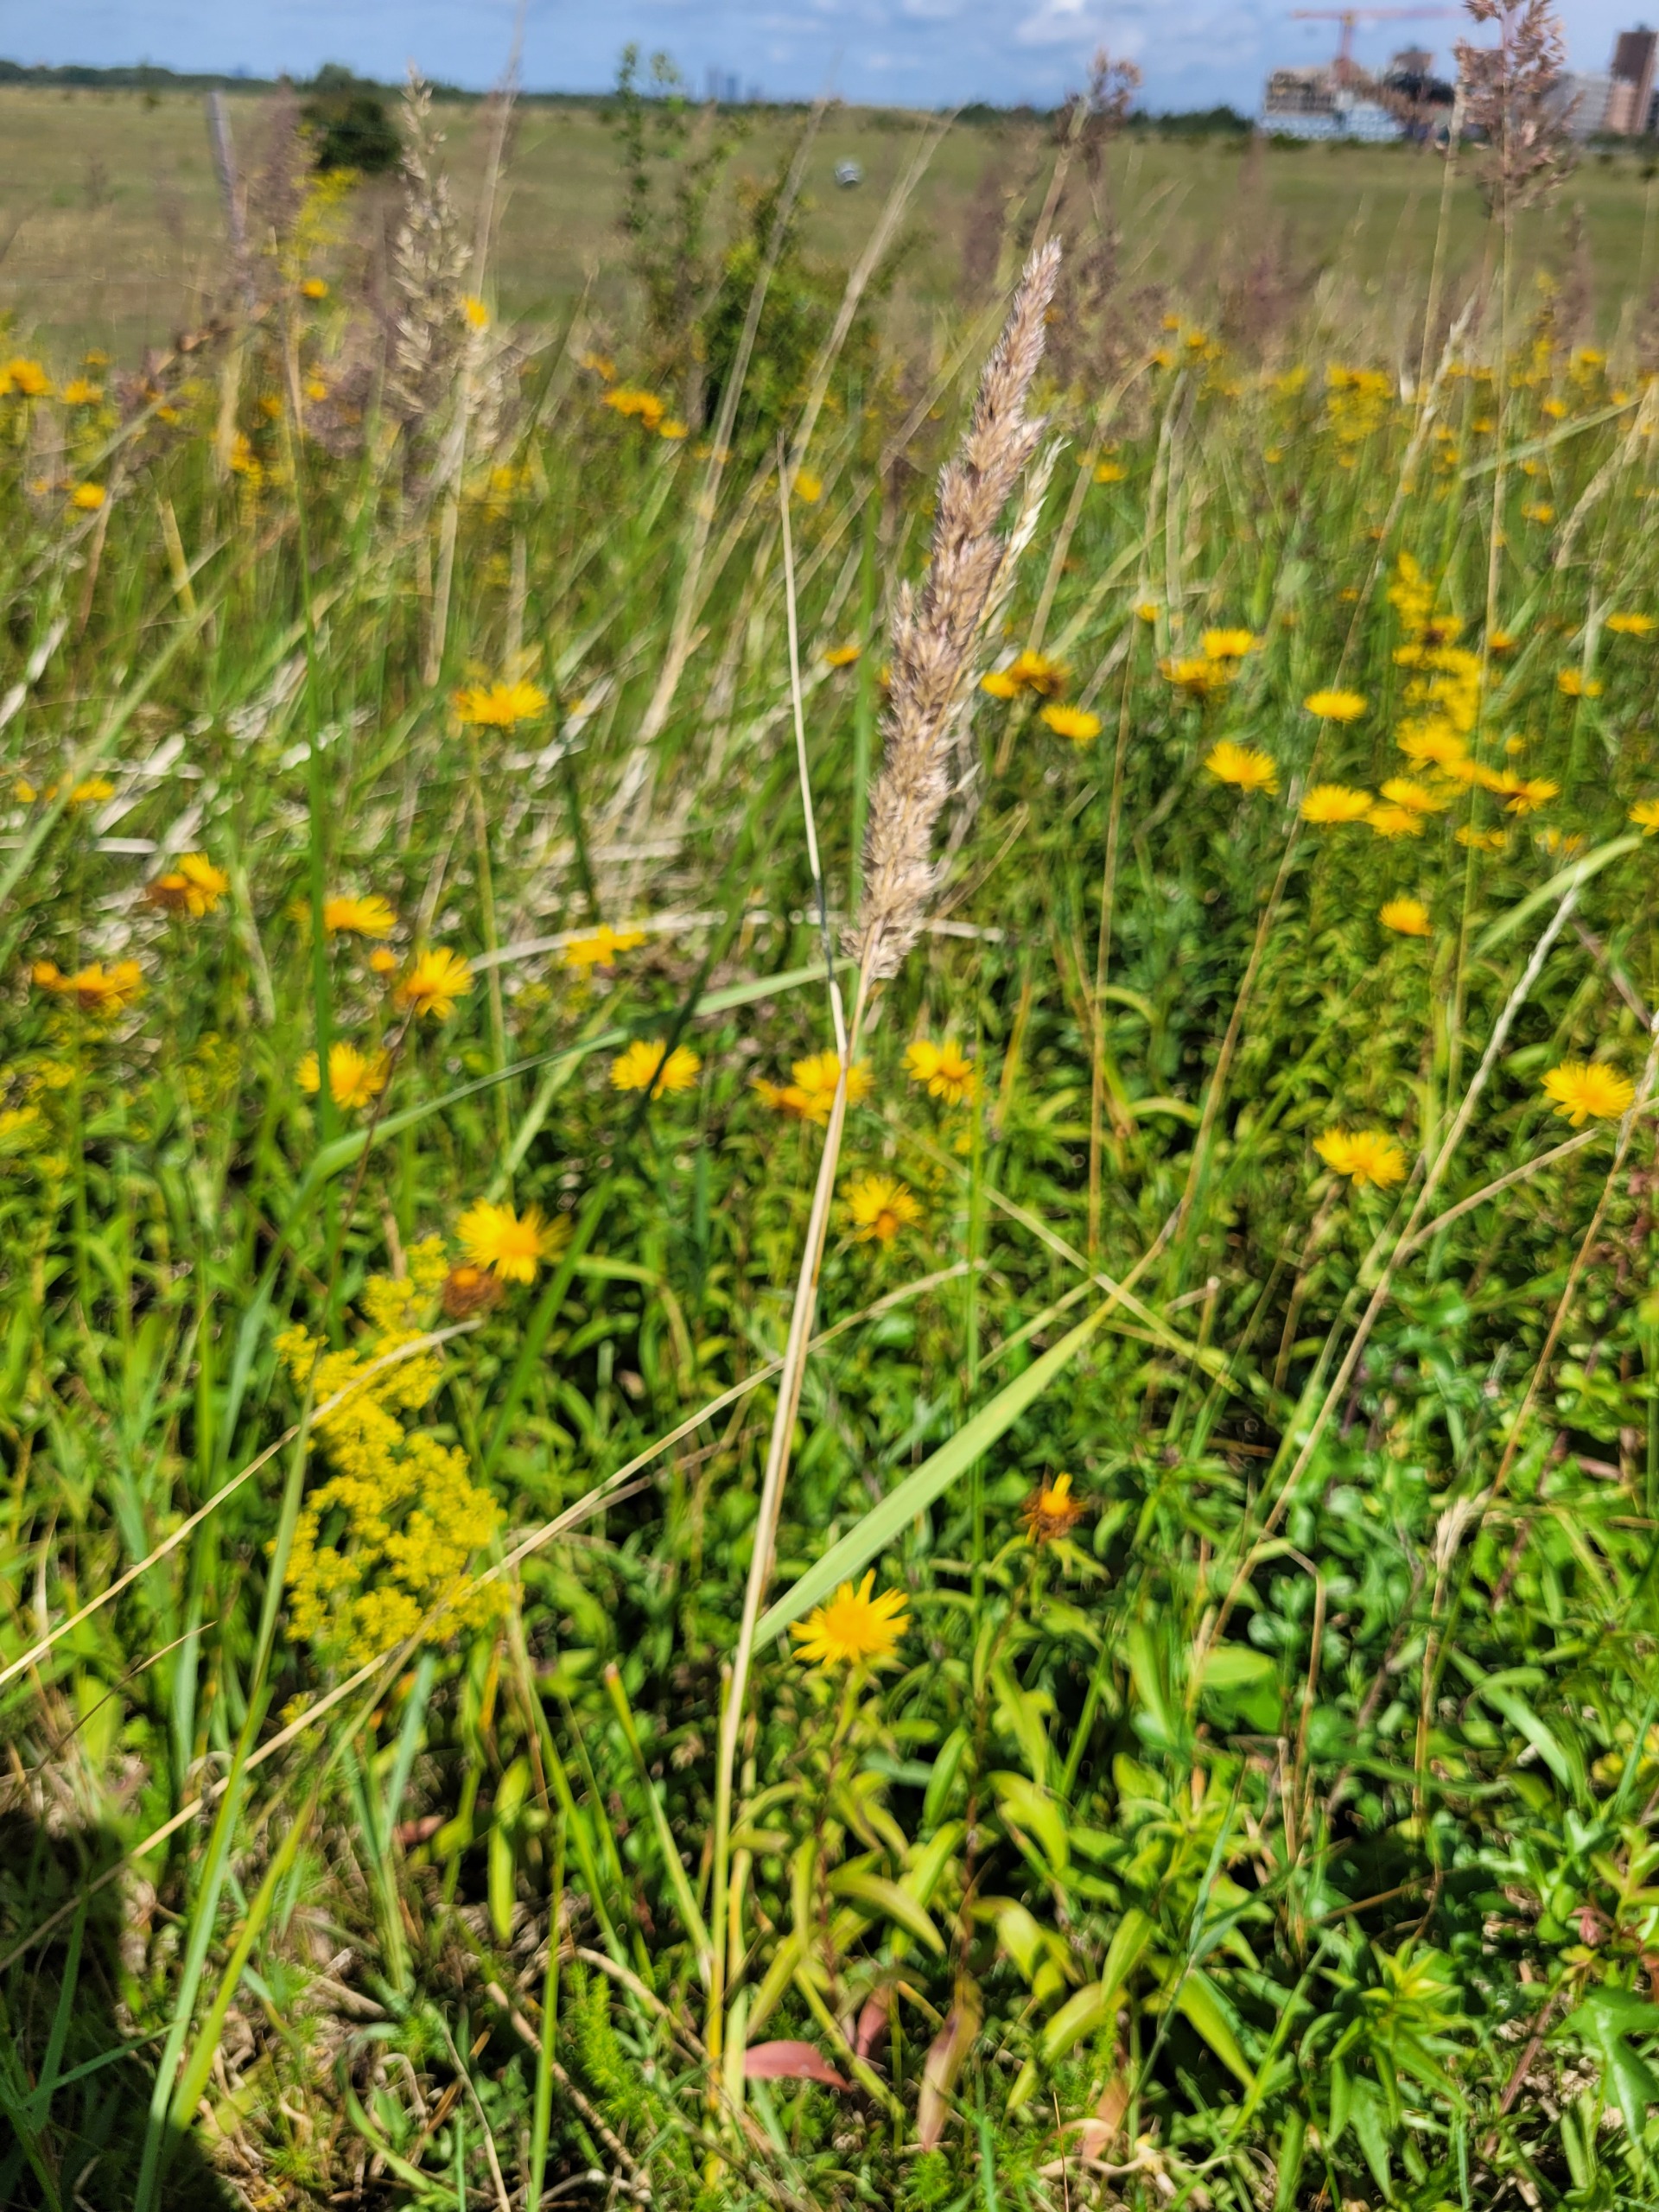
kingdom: Plantae
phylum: Tracheophyta
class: Liliopsida
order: Poales
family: Poaceae
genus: Calamagrostis
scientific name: Calamagrostis epigejos
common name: Bjerg-rørhvene
